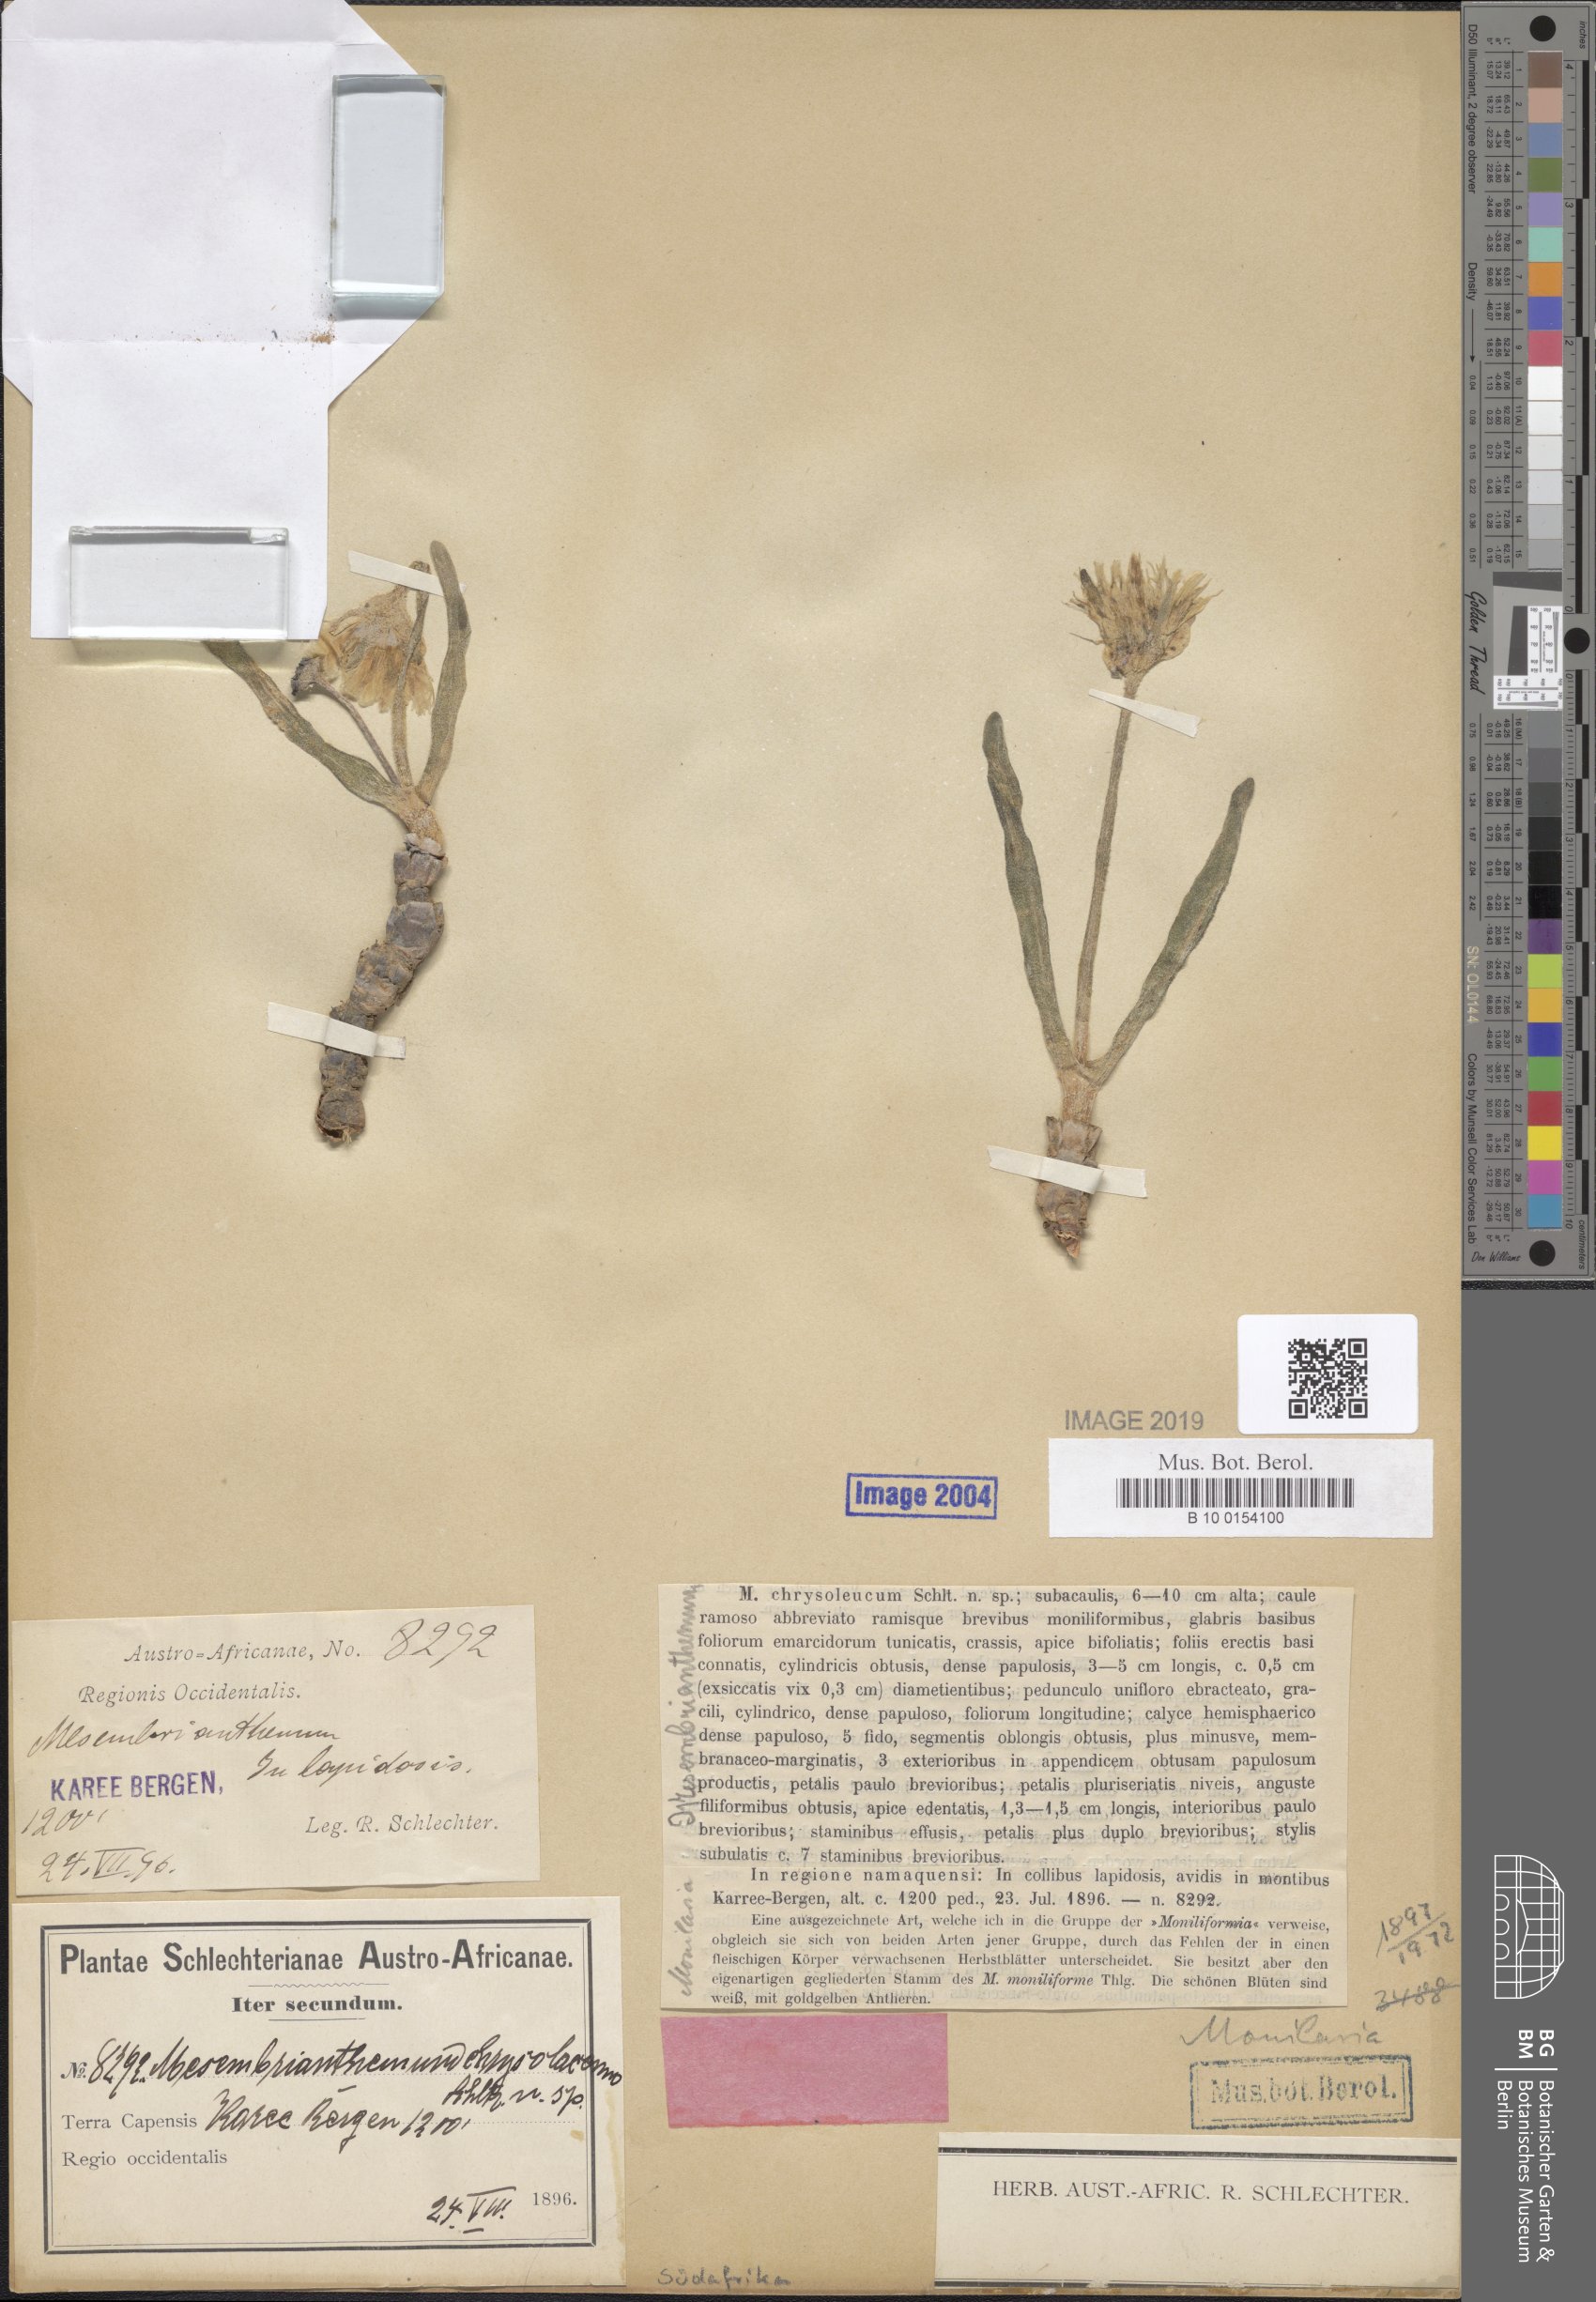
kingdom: Plantae
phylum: Tracheophyta
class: Magnoliopsida
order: Caryophyllales
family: Aizoaceae
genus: Dracophilus
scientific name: Dracophilus Monilaria chrysoleuca
